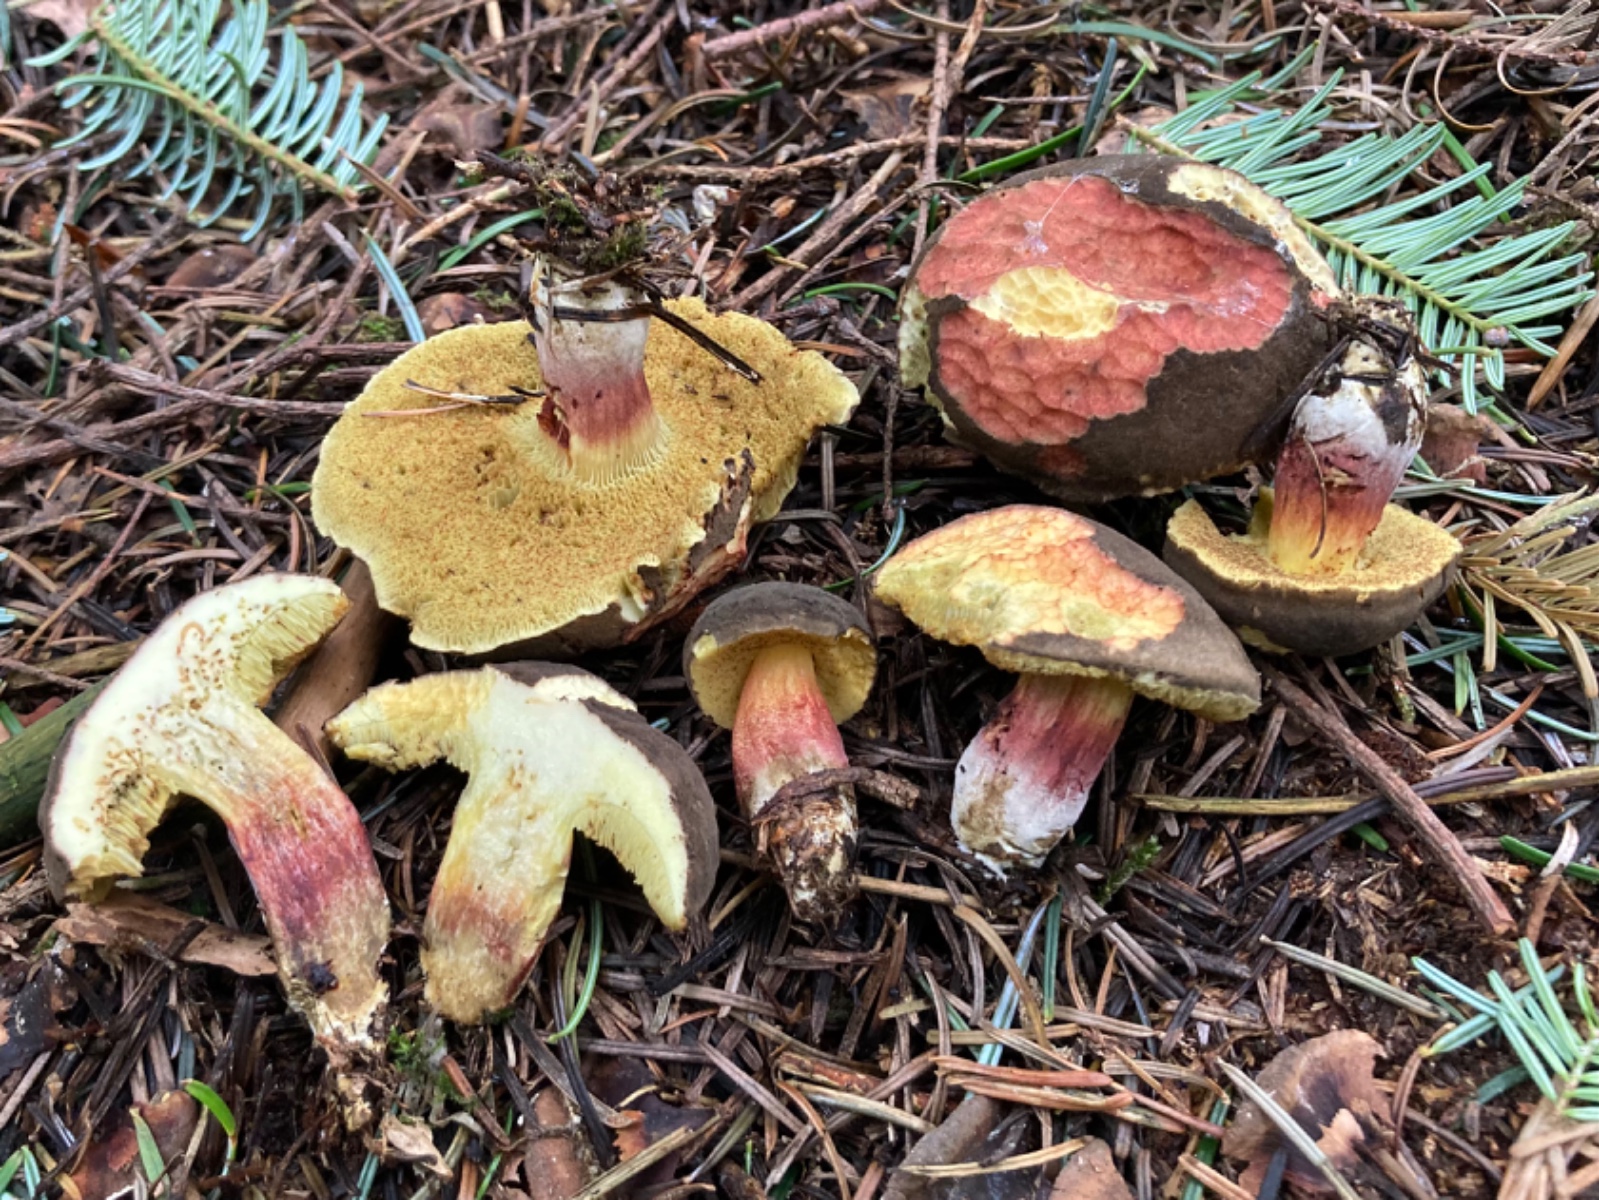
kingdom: Fungi
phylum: Basidiomycota
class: Agaricomycetes
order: Boletales
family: Boletaceae
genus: Xerocomellus
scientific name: Xerocomellus chrysenteron
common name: rødsprukken rørhat
